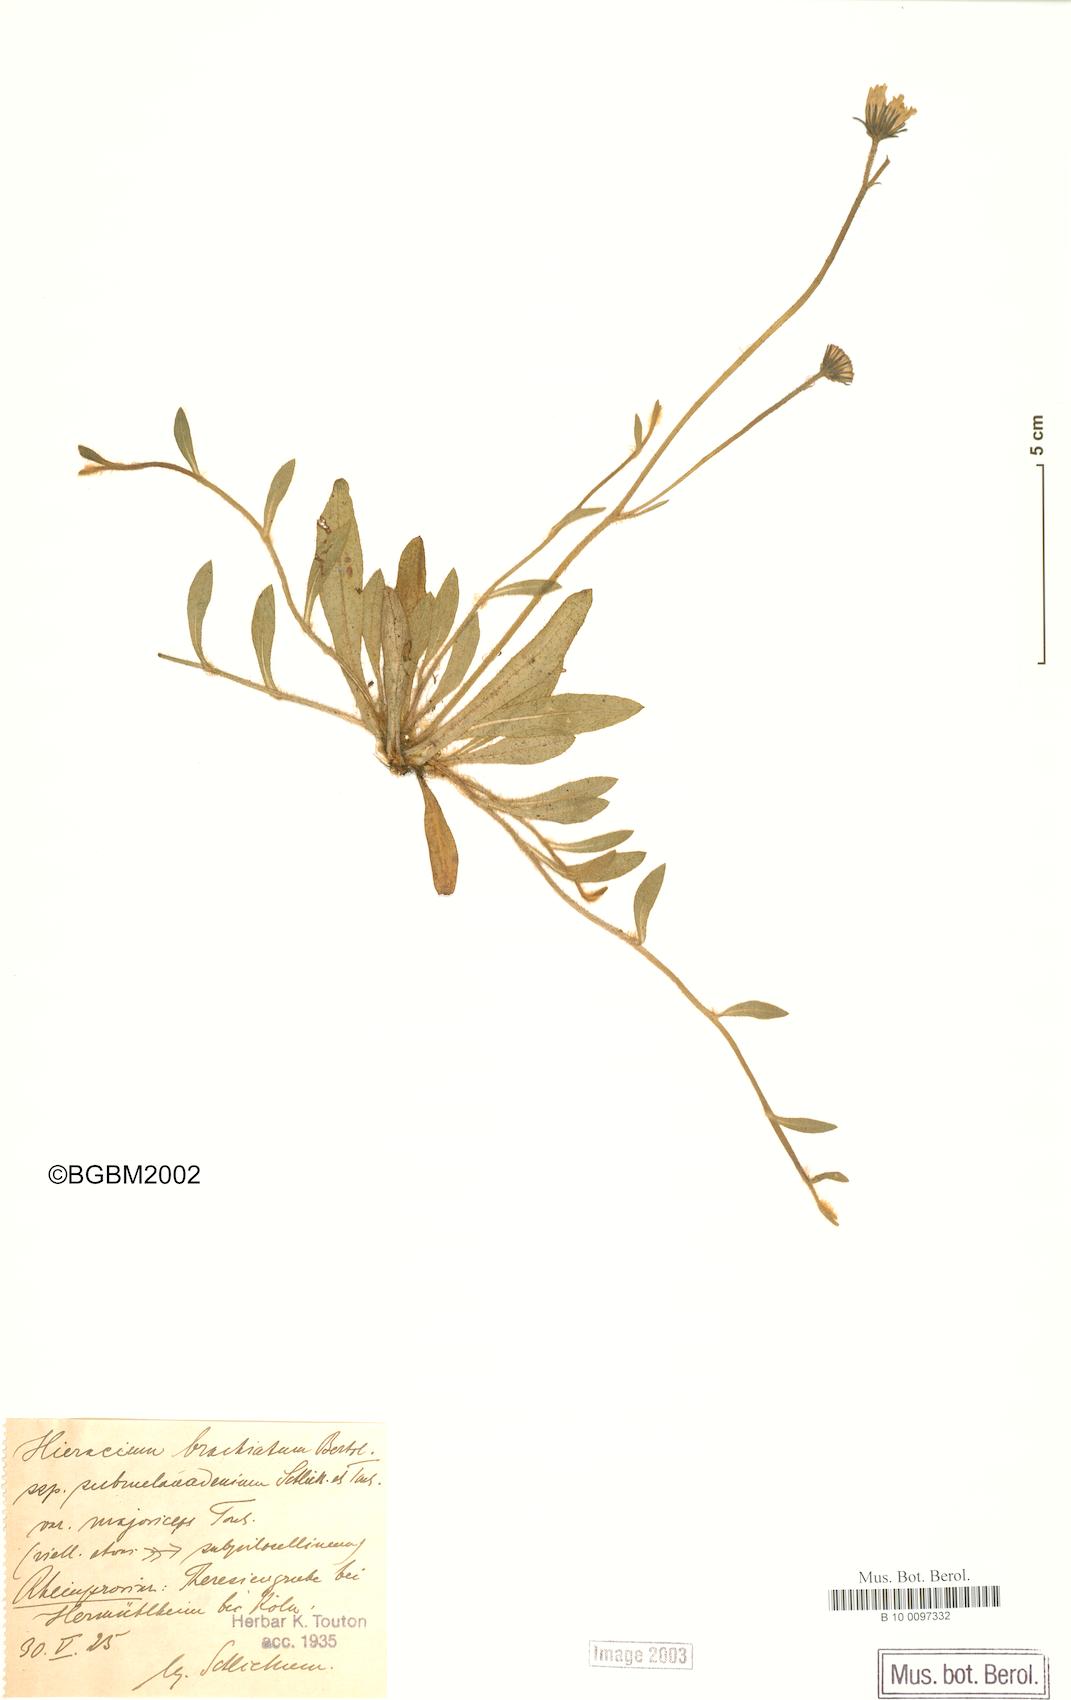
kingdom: Plantae
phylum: Tracheophyta
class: Magnoliopsida
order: Asterales
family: Asteraceae
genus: Pilosella
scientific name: Pilosella acutifolia
